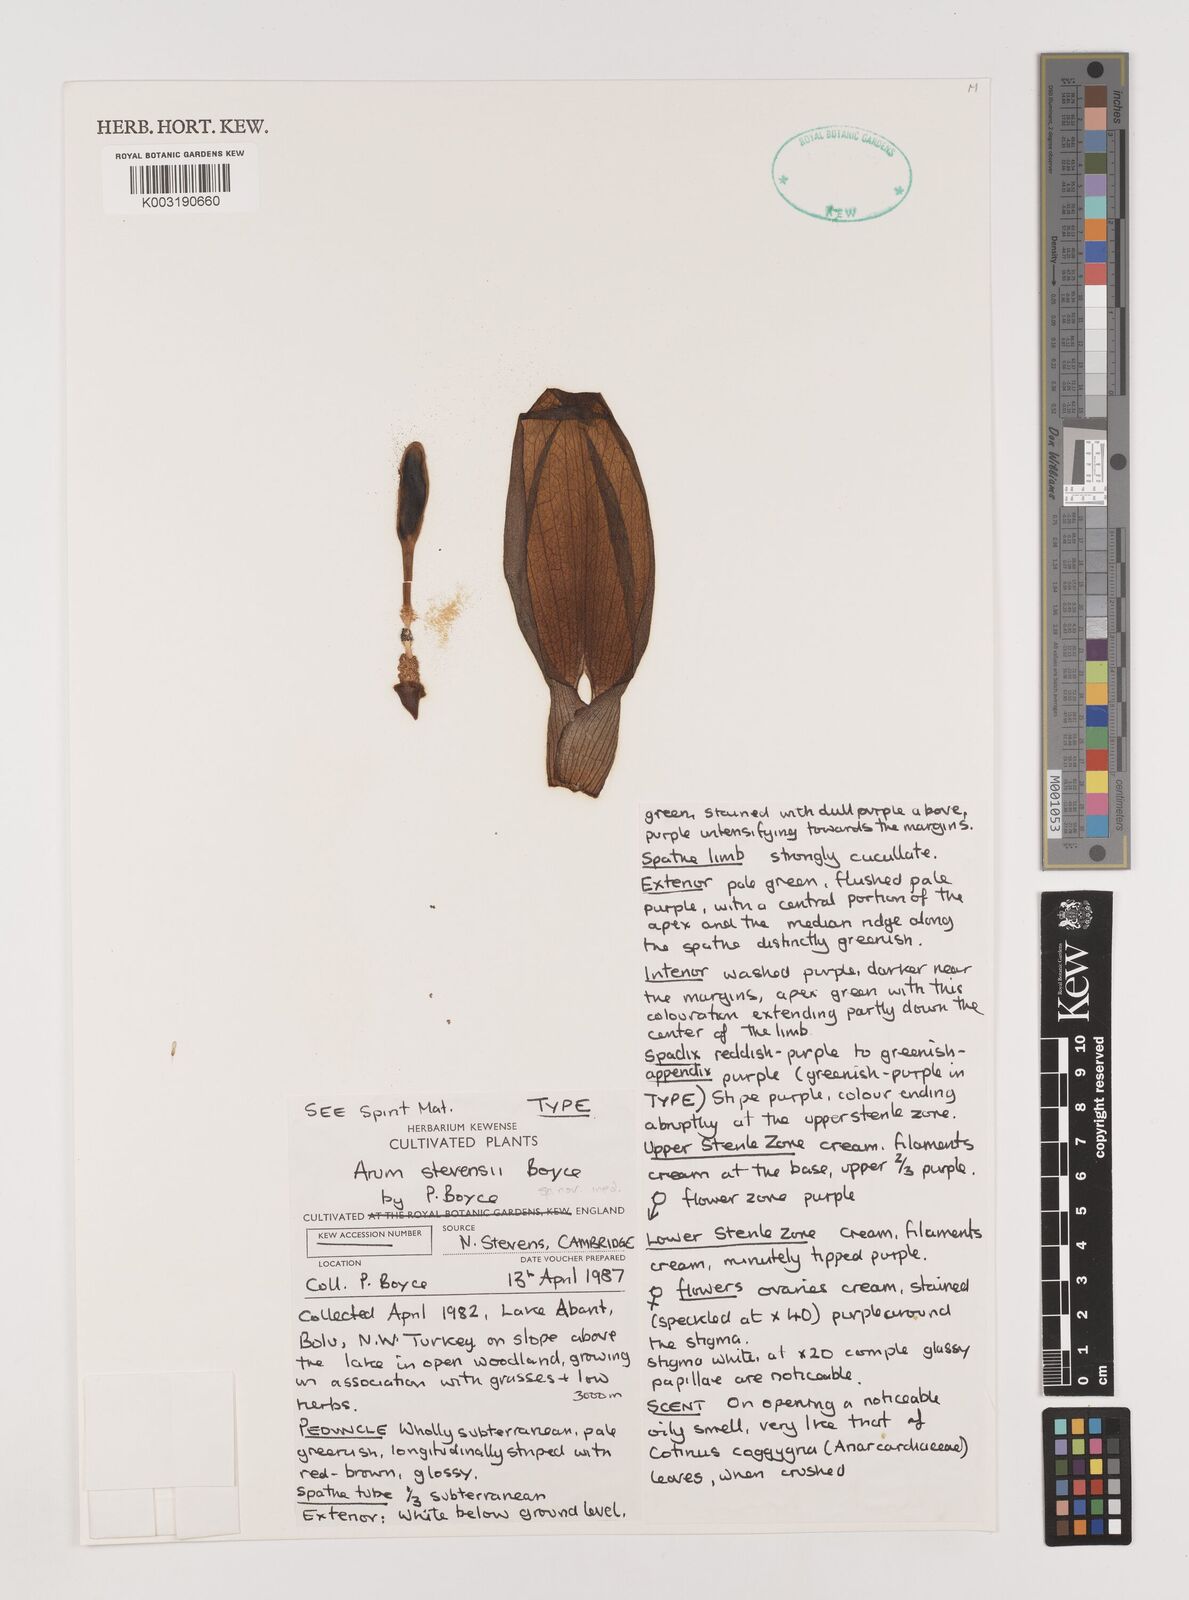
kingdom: Plantae
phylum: Tracheophyta
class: Liliopsida
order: Alismatales
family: Araceae
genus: Arum
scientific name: Arum gratum
